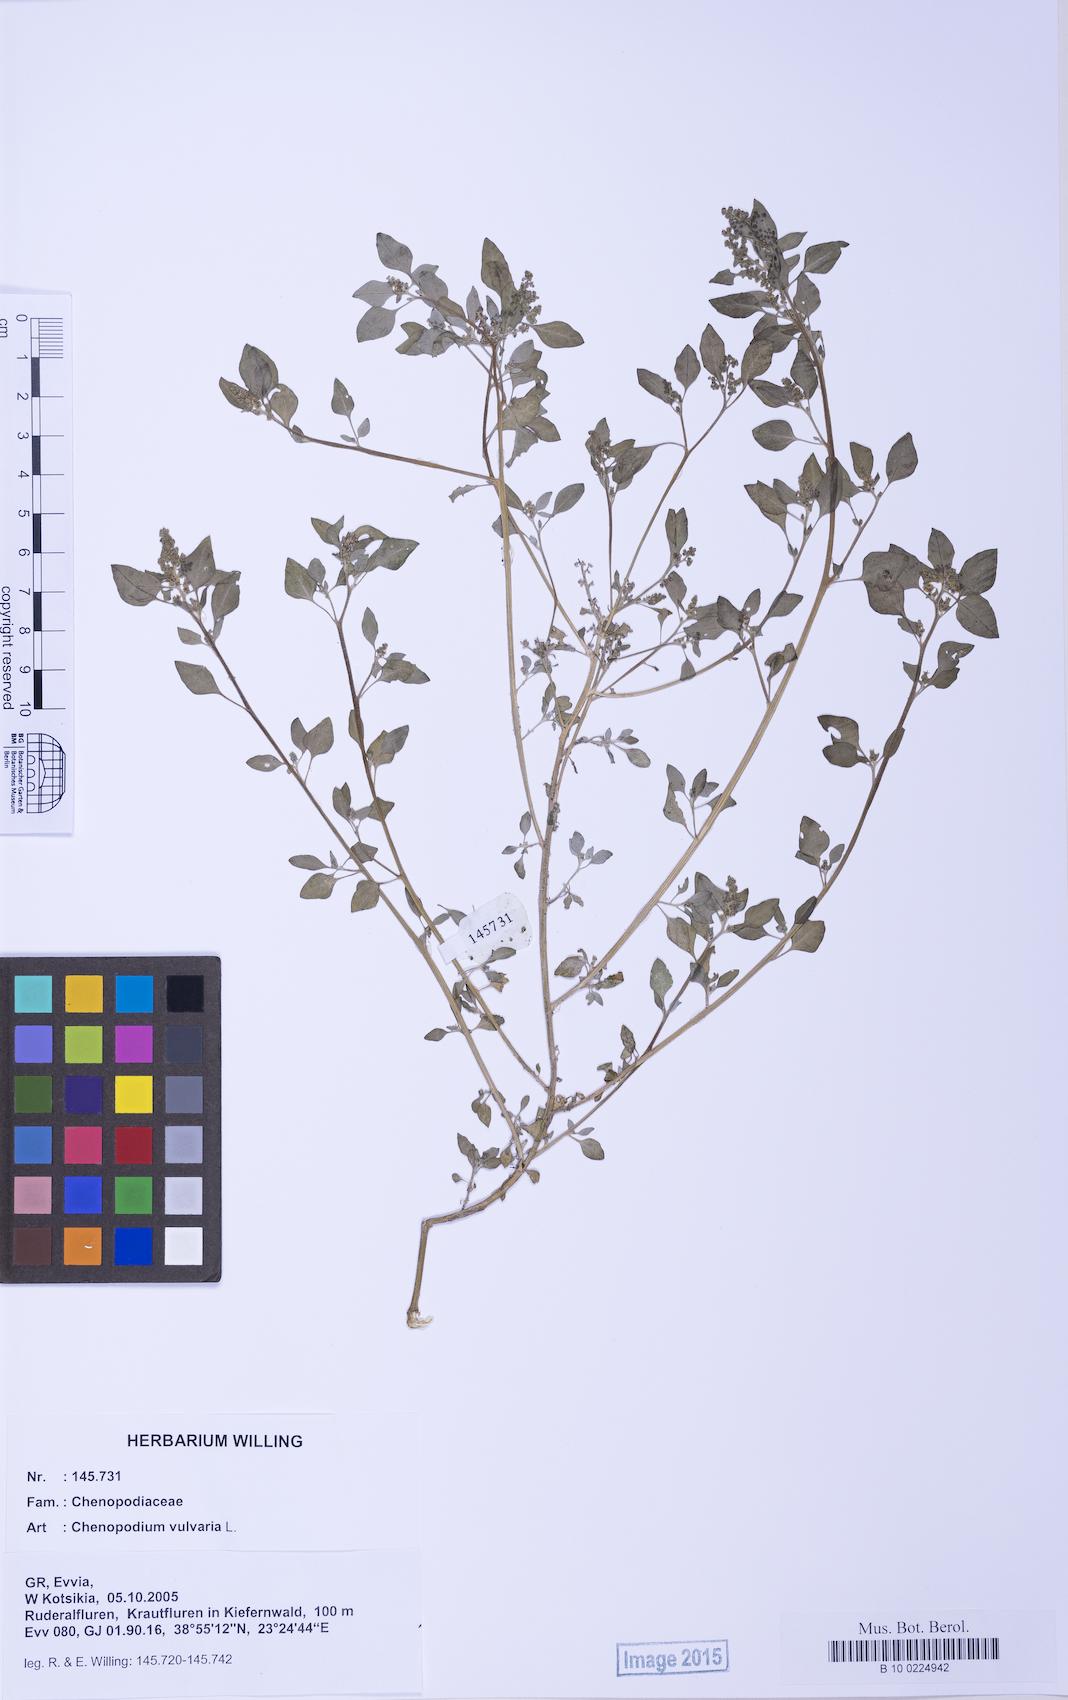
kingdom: Plantae
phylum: Tracheophyta
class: Magnoliopsida
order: Caryophyllales
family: Amaranthaceae
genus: Chenopodium
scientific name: Chenopodium vulvaria
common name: Stinking goosefoot
